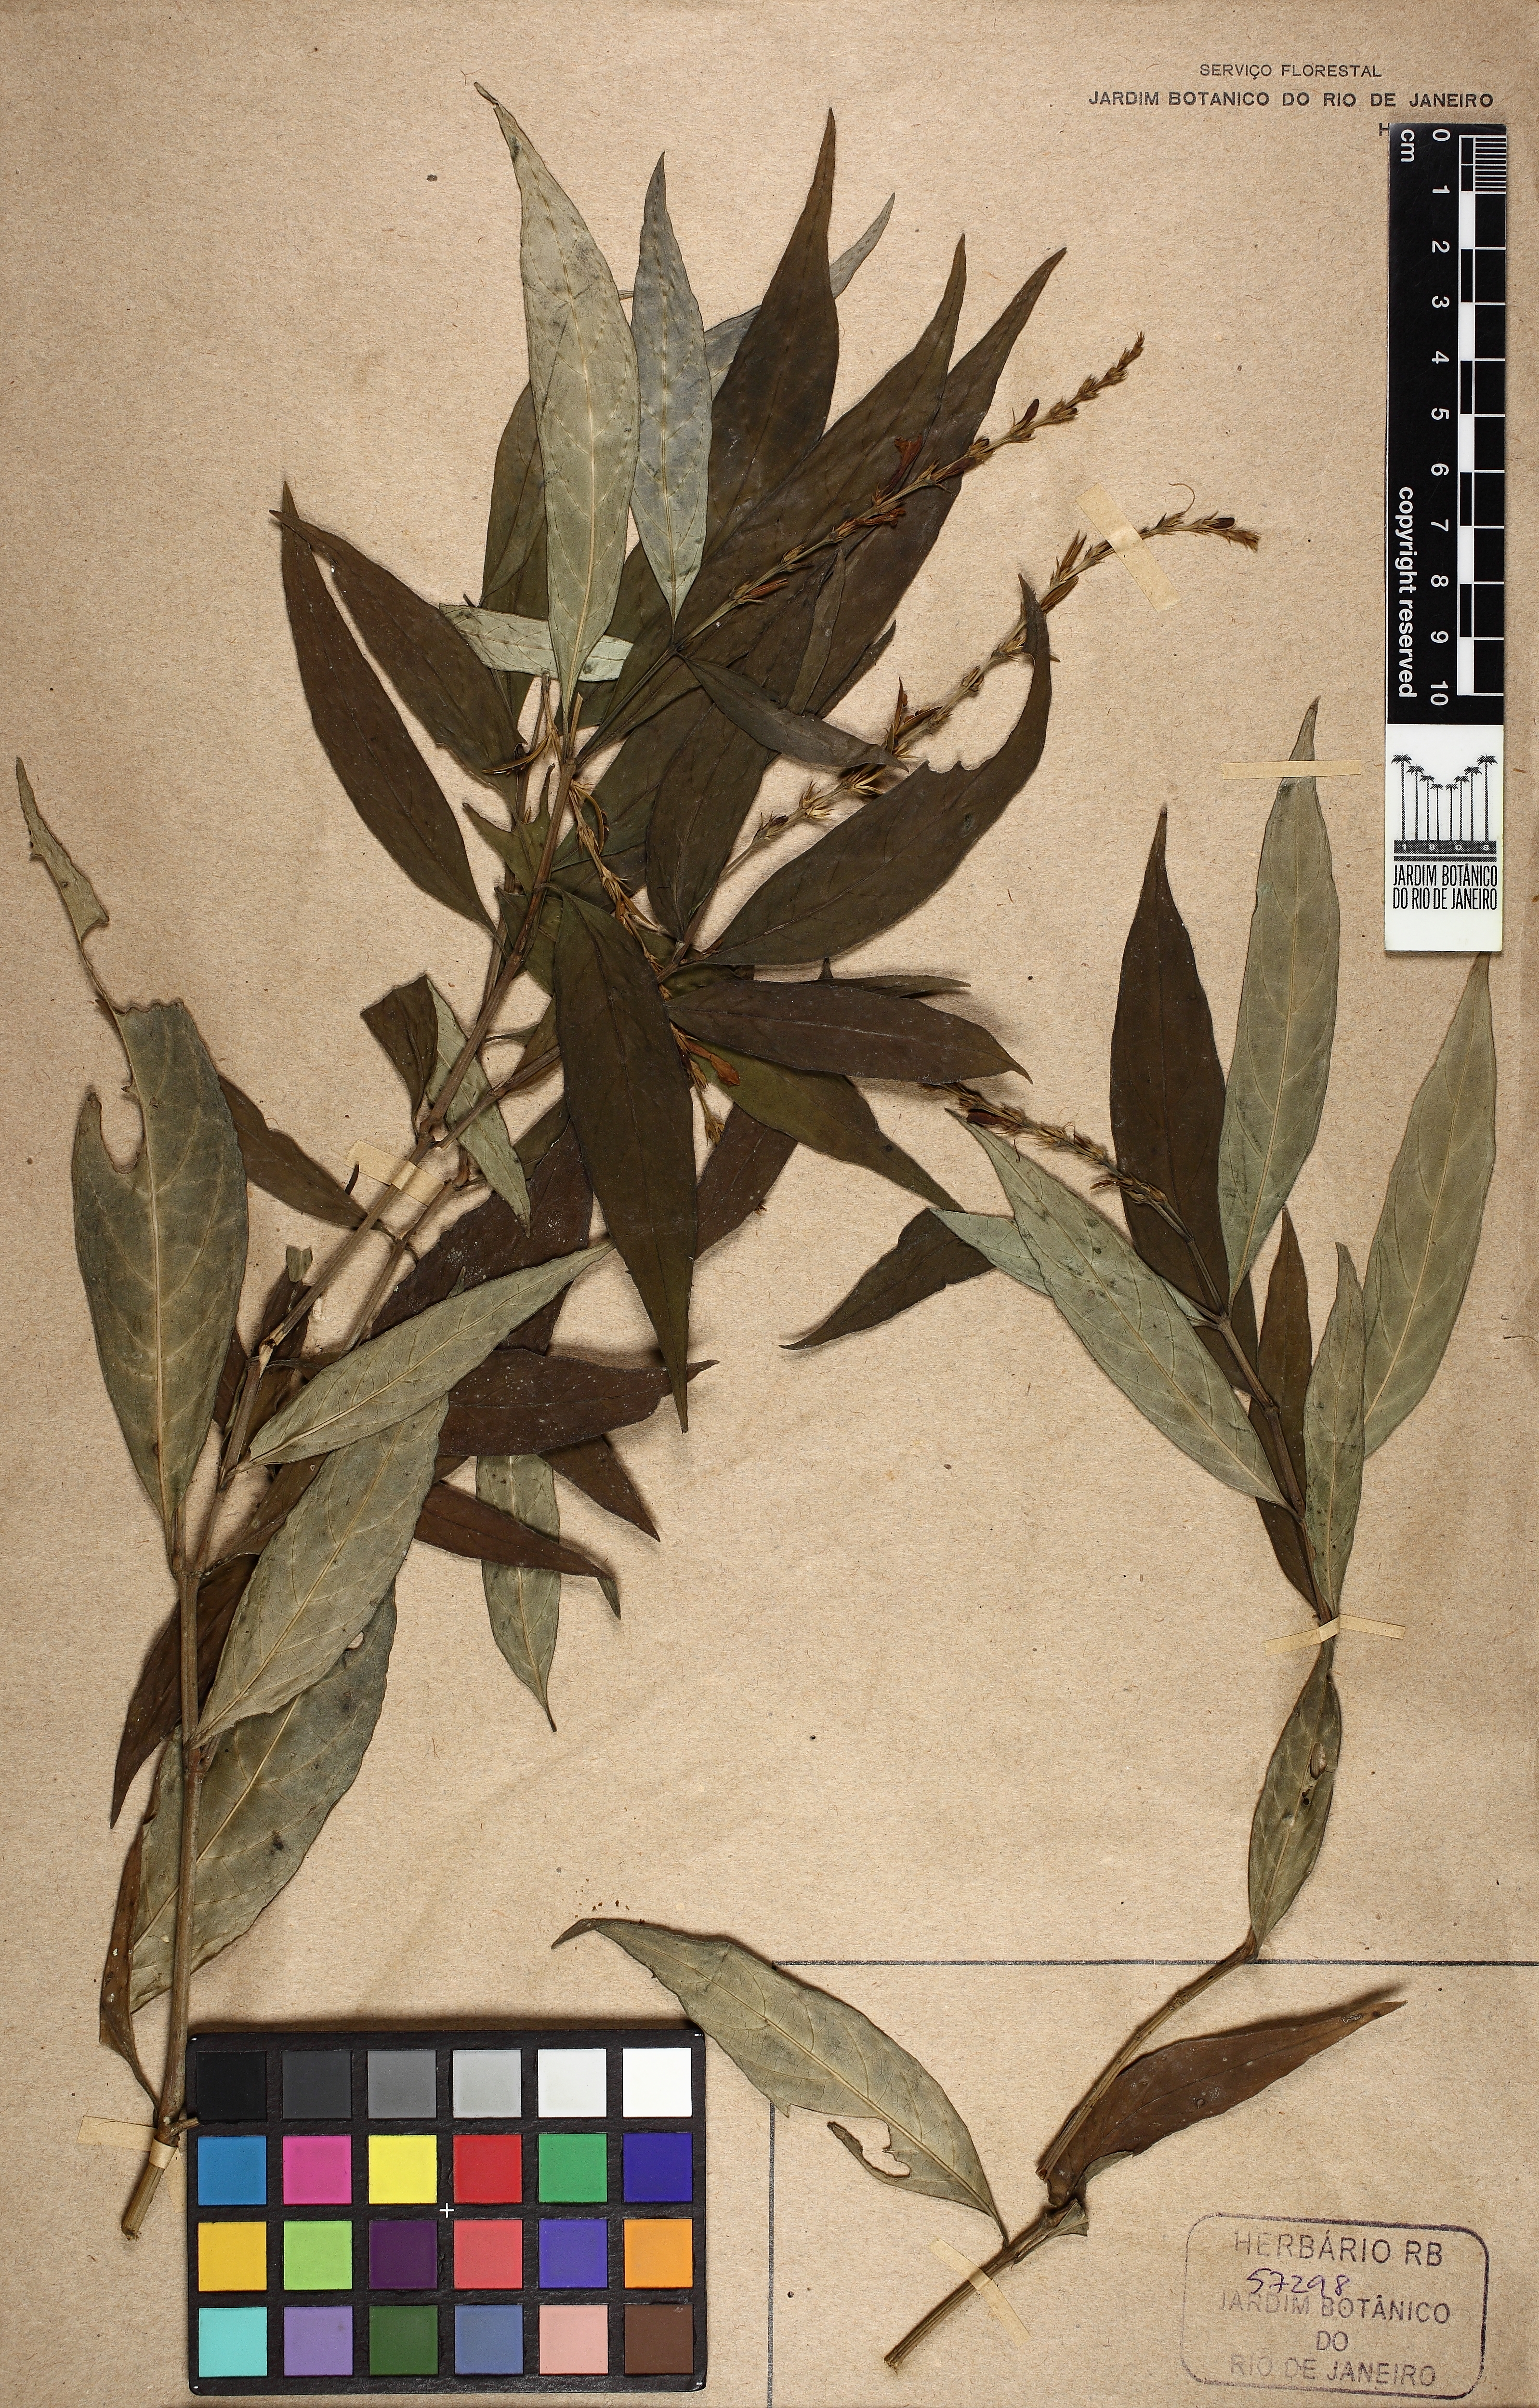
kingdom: Plantae
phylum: Tracheophyta
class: Magnoliopsida
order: Lamiales
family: Acanthaceae
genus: Dianthera
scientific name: Dianthera laeta
